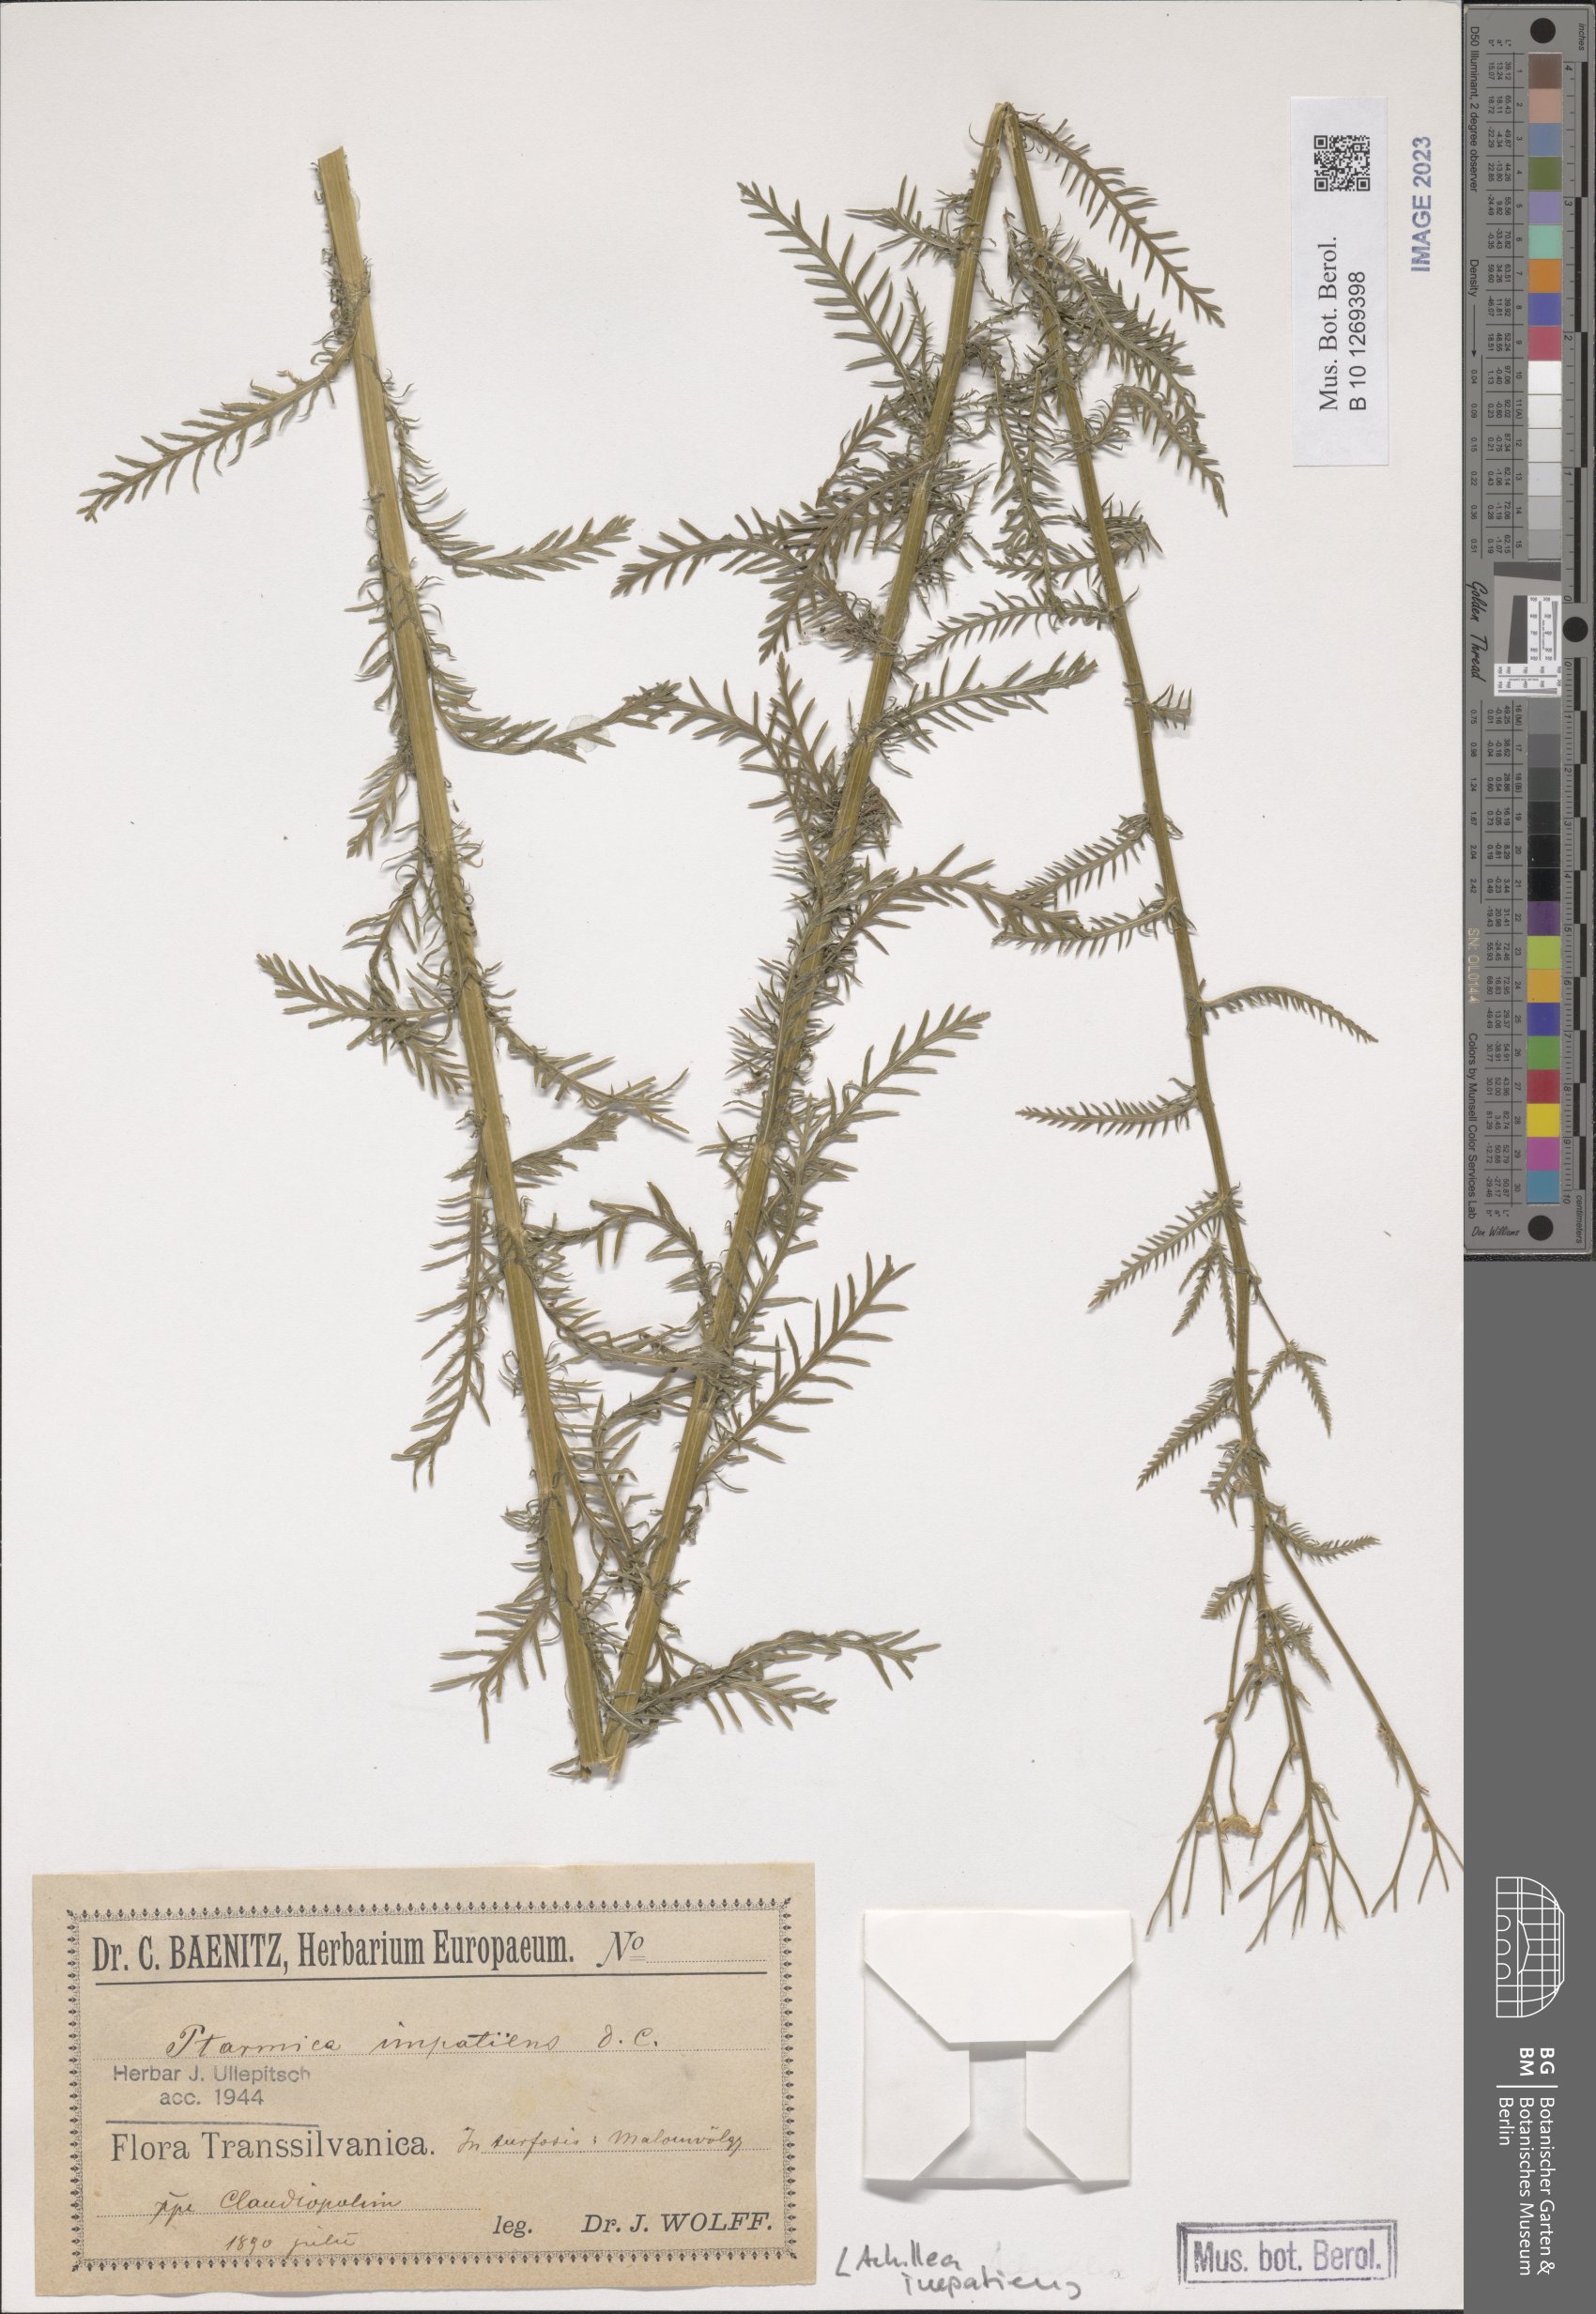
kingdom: Plantae
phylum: Tracheophyta
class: Magnoliopsida
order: Asterales
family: Asteraceae
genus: Achillea
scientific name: Achillea impatiens
